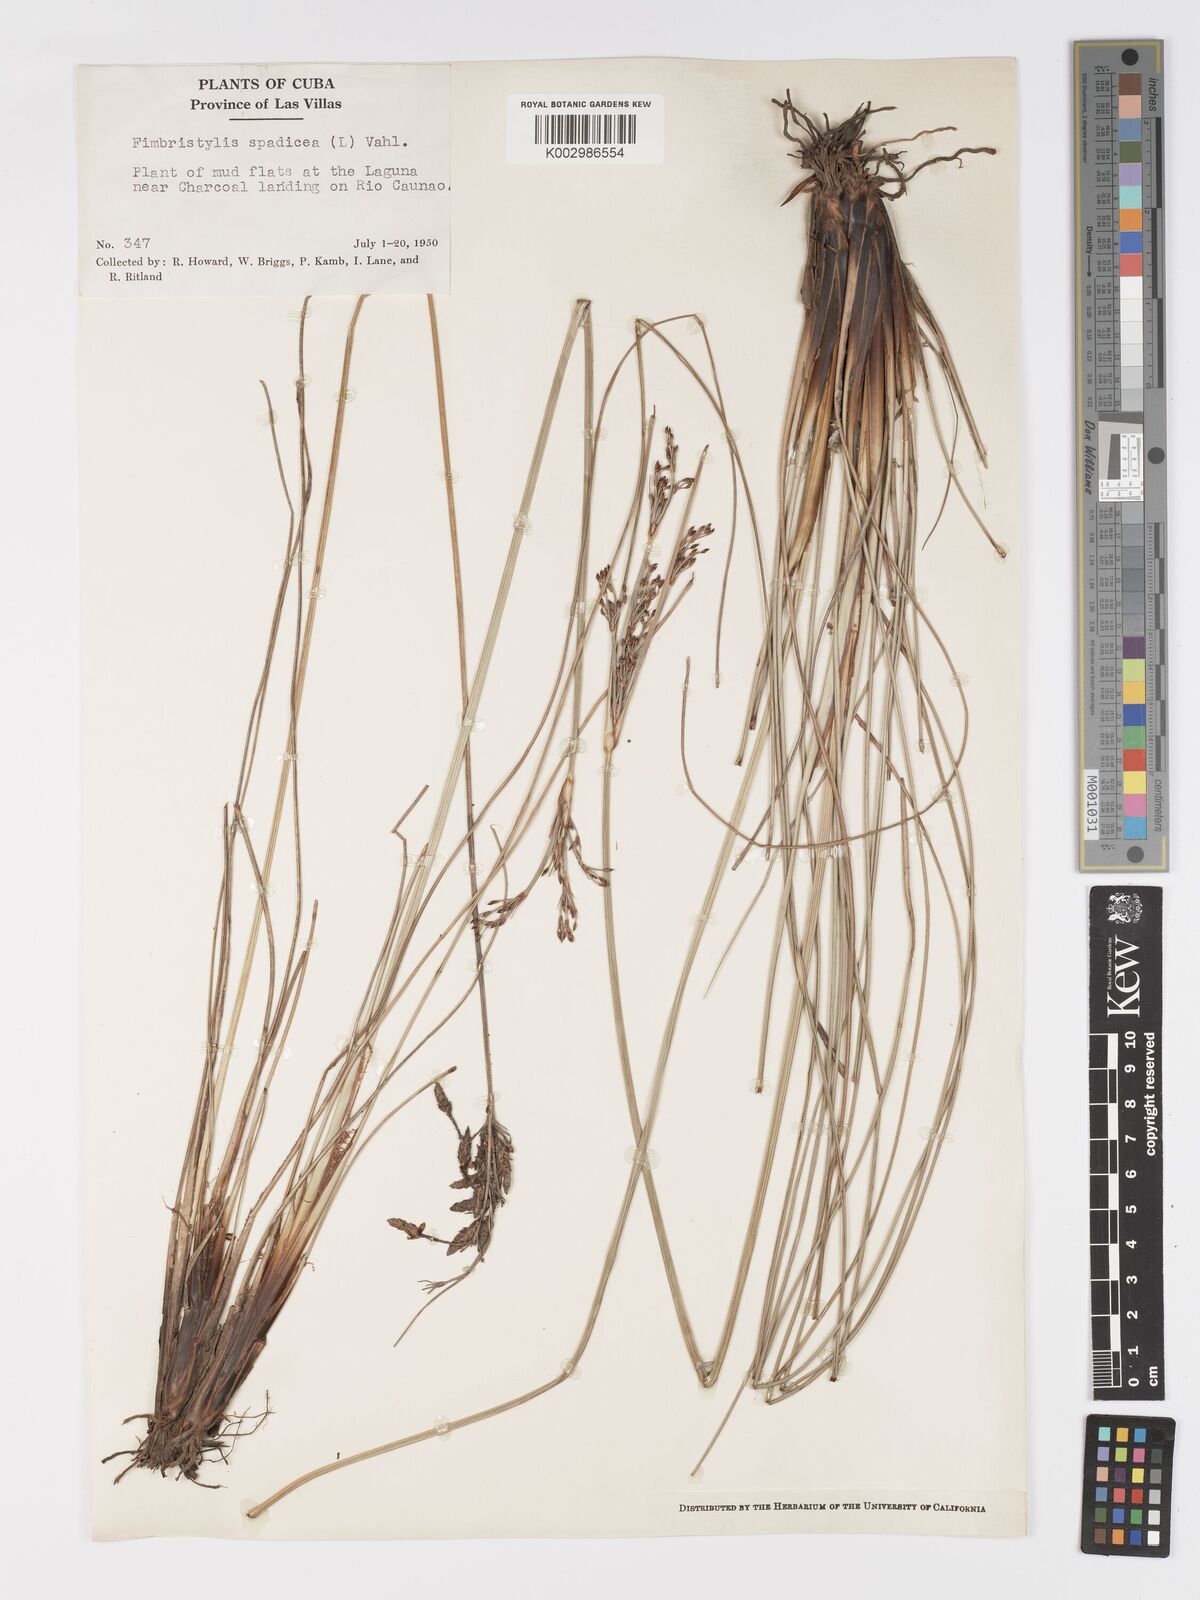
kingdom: Plantae
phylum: Tracheophyta
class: Liliopsida
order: Poales
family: Cyperaceae
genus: Fimbristylis
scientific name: Fimbristylis spadicea
